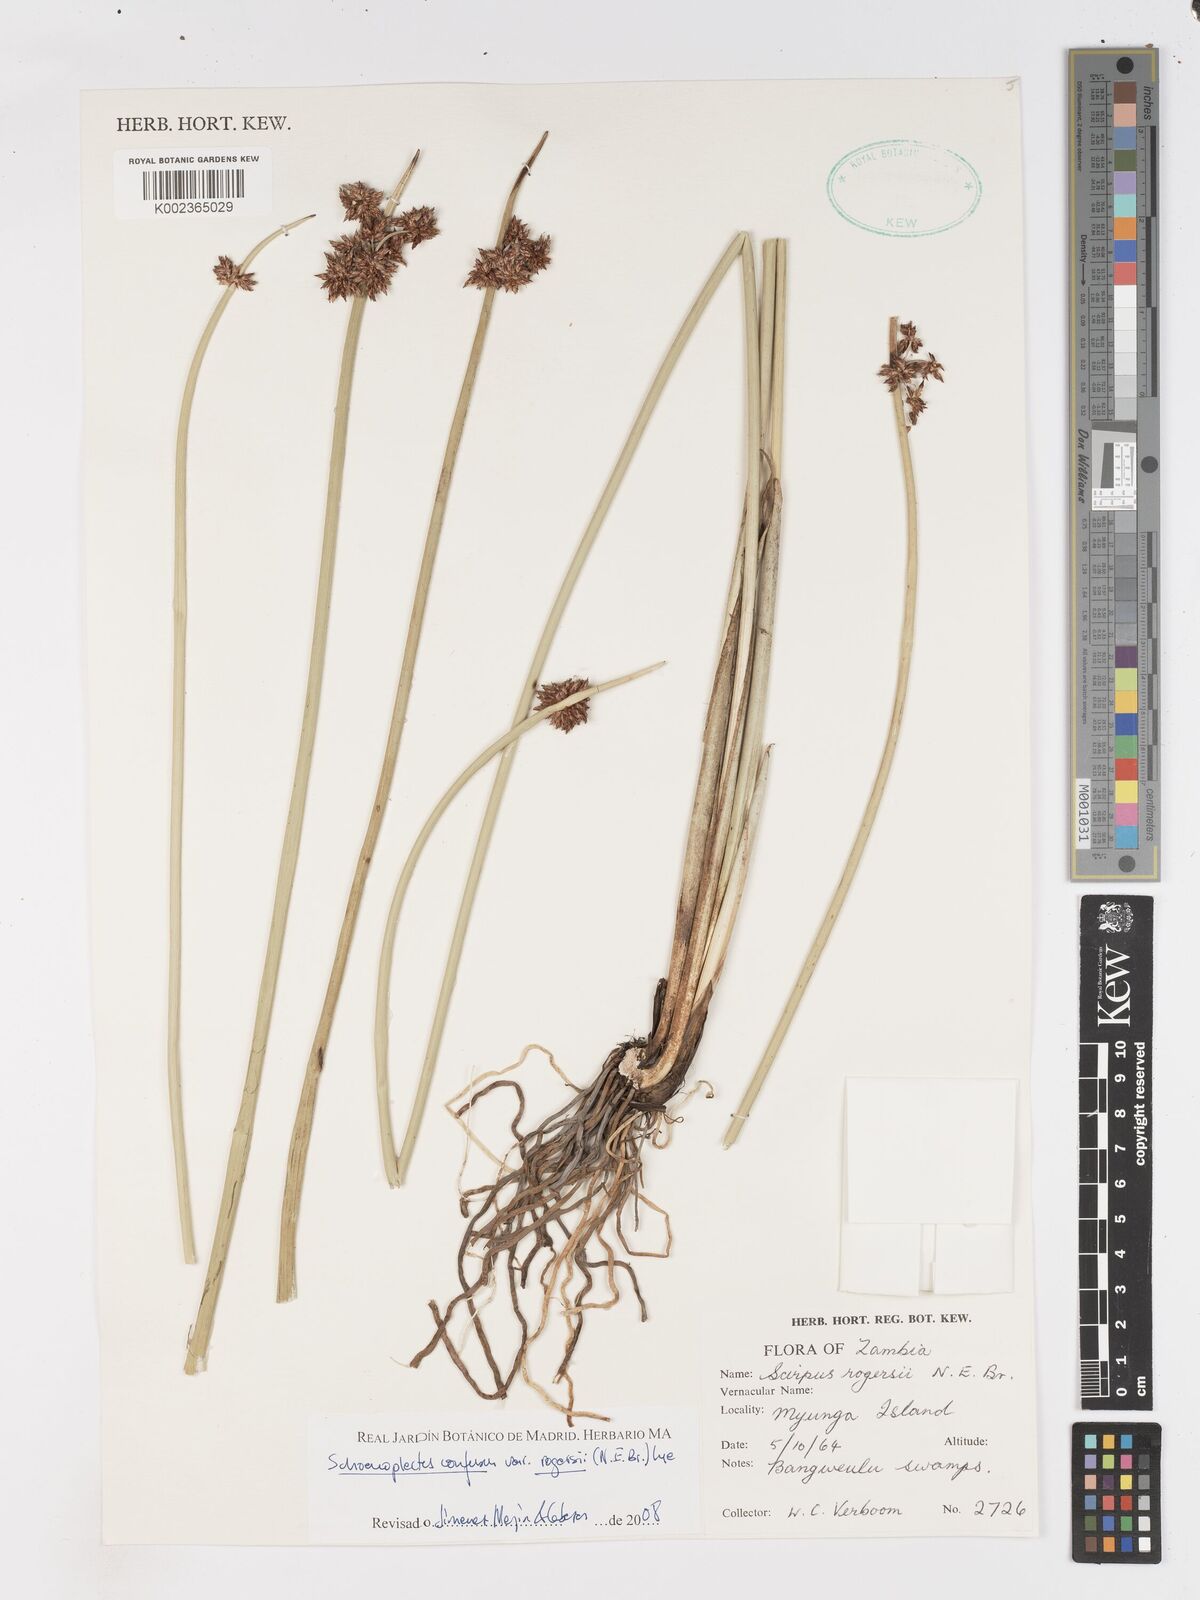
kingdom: Plantae
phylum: Tracheophyta
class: Liliopsida
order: Poales
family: Cyperaceae
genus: Schoenoplectiella
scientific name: Schoenoplectiella rogersii
